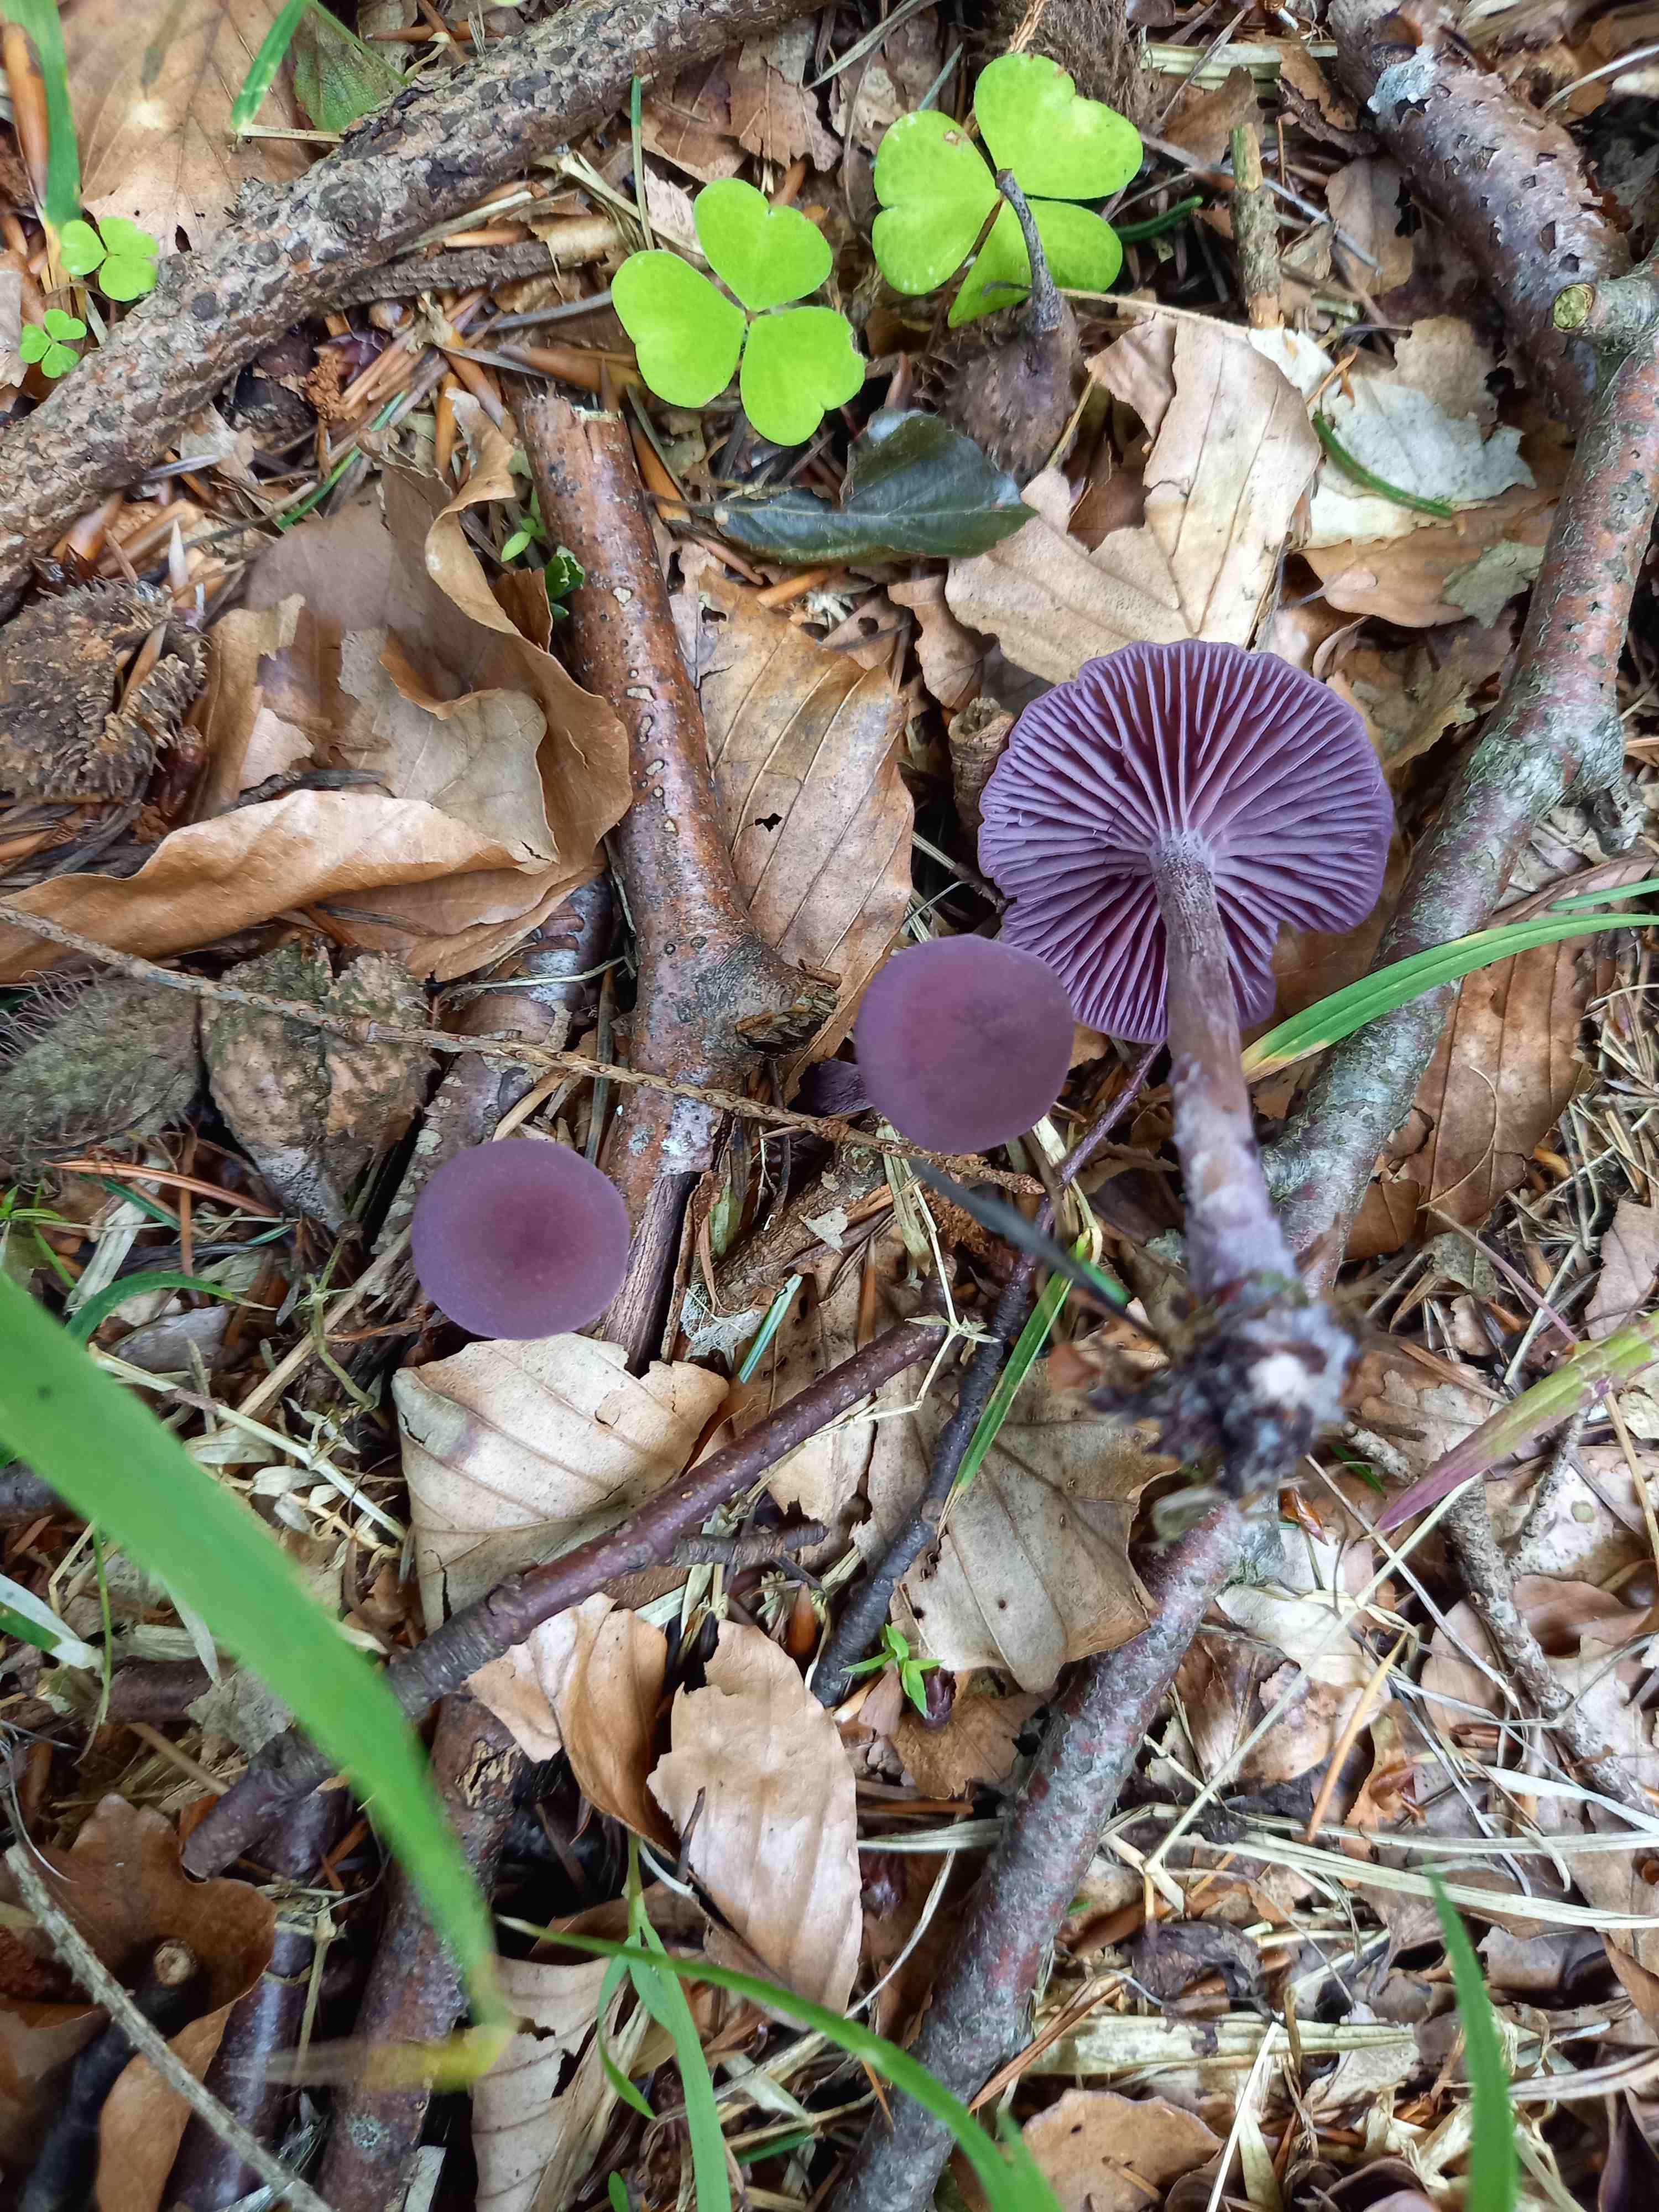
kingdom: Fungi
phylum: Basidiomycota
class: Agaricomycetes
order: Agaricales
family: Hydnangiaceae
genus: Laccaria
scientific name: Laccaria amethystina
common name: violet ametysthat
